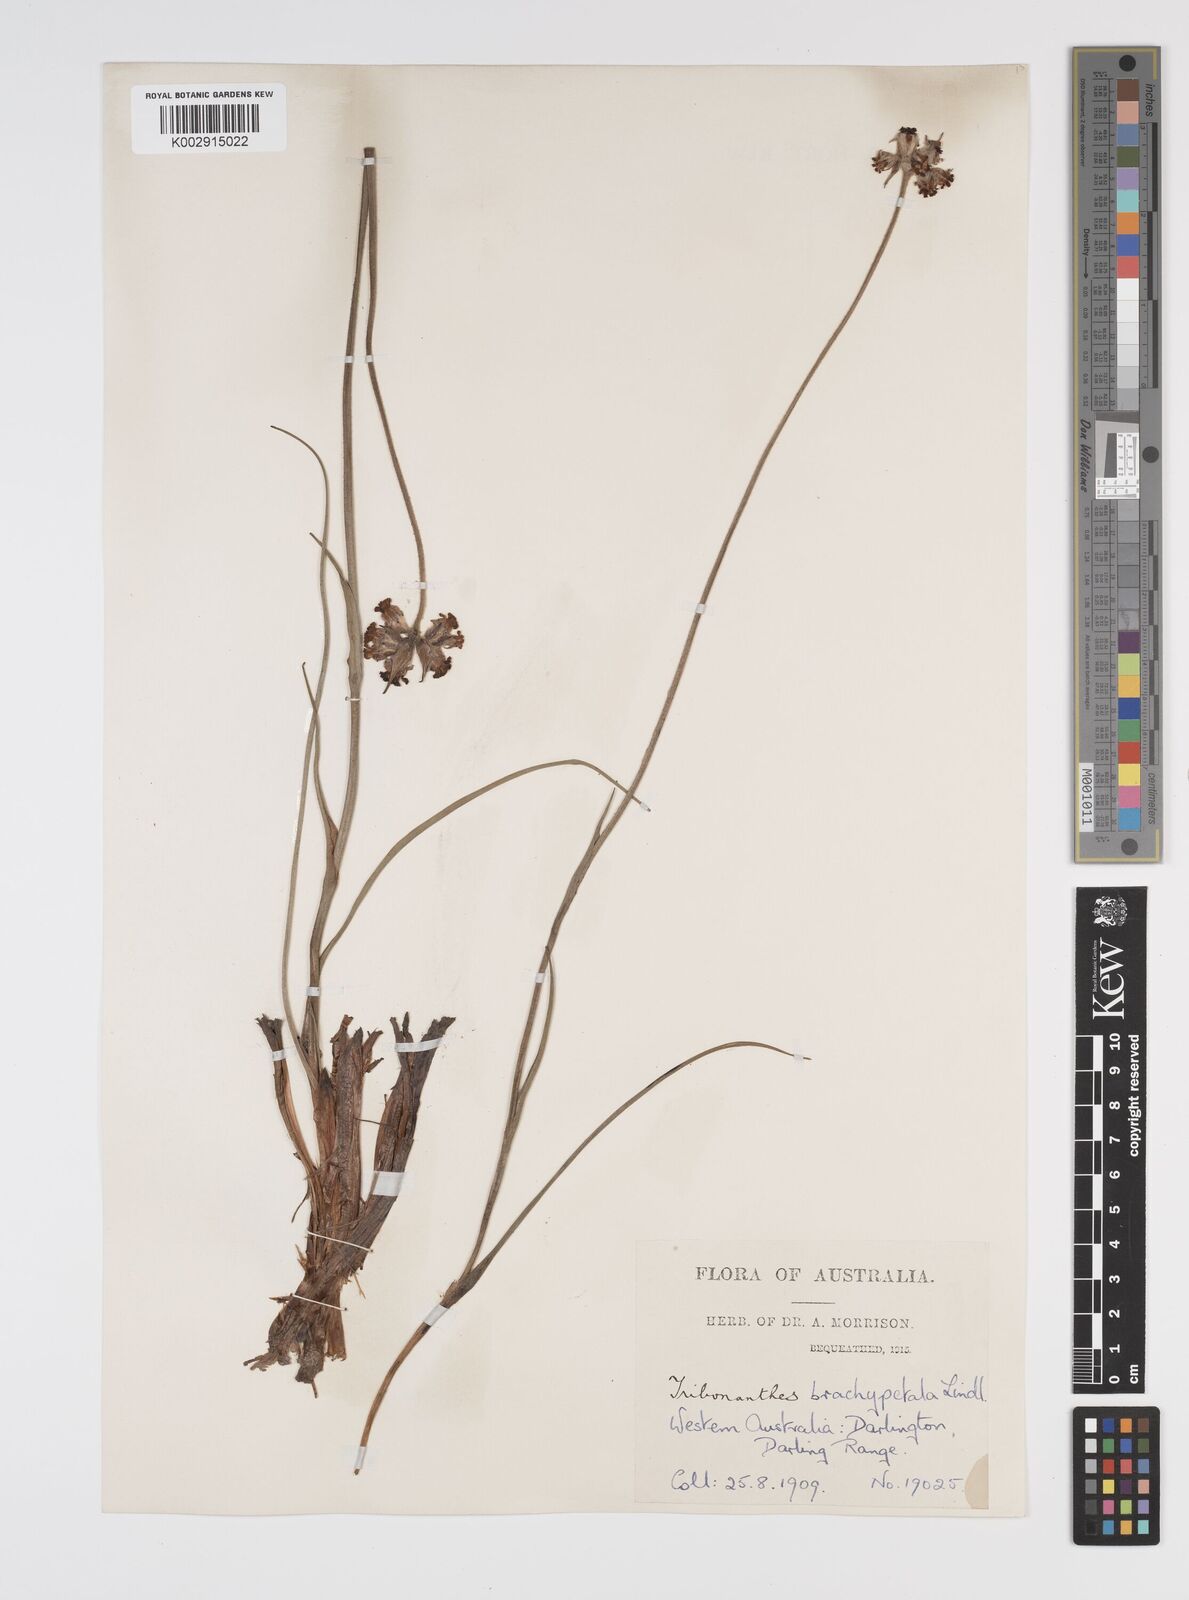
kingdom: Plantae
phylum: Tracheophyta
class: Liliopsida
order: Commelinales
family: Haemodoraceae
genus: Tribonanthes
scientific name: Tribonanthes brachypetala
